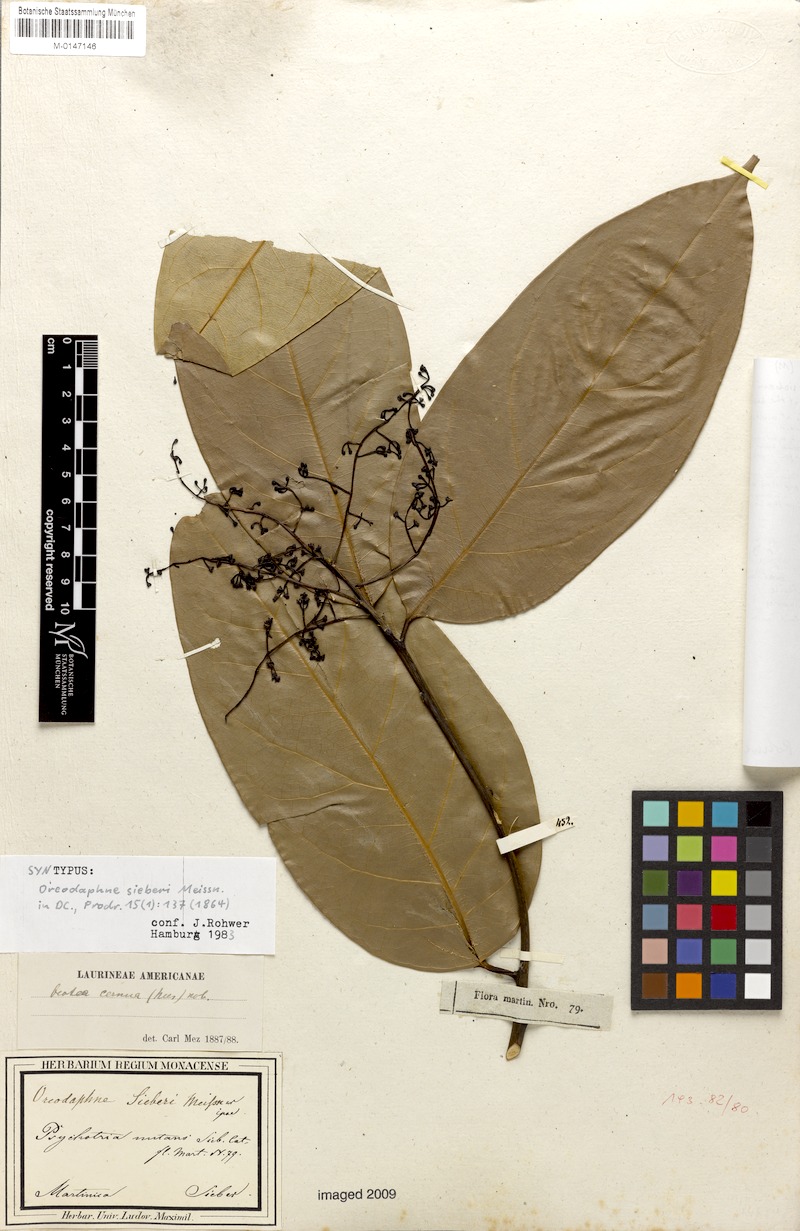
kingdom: Plantae
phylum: Tracheophyta
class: Magnoliopsida
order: Laurales
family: Lauraceae
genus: Ocotea
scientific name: Ocotea leptobotra
